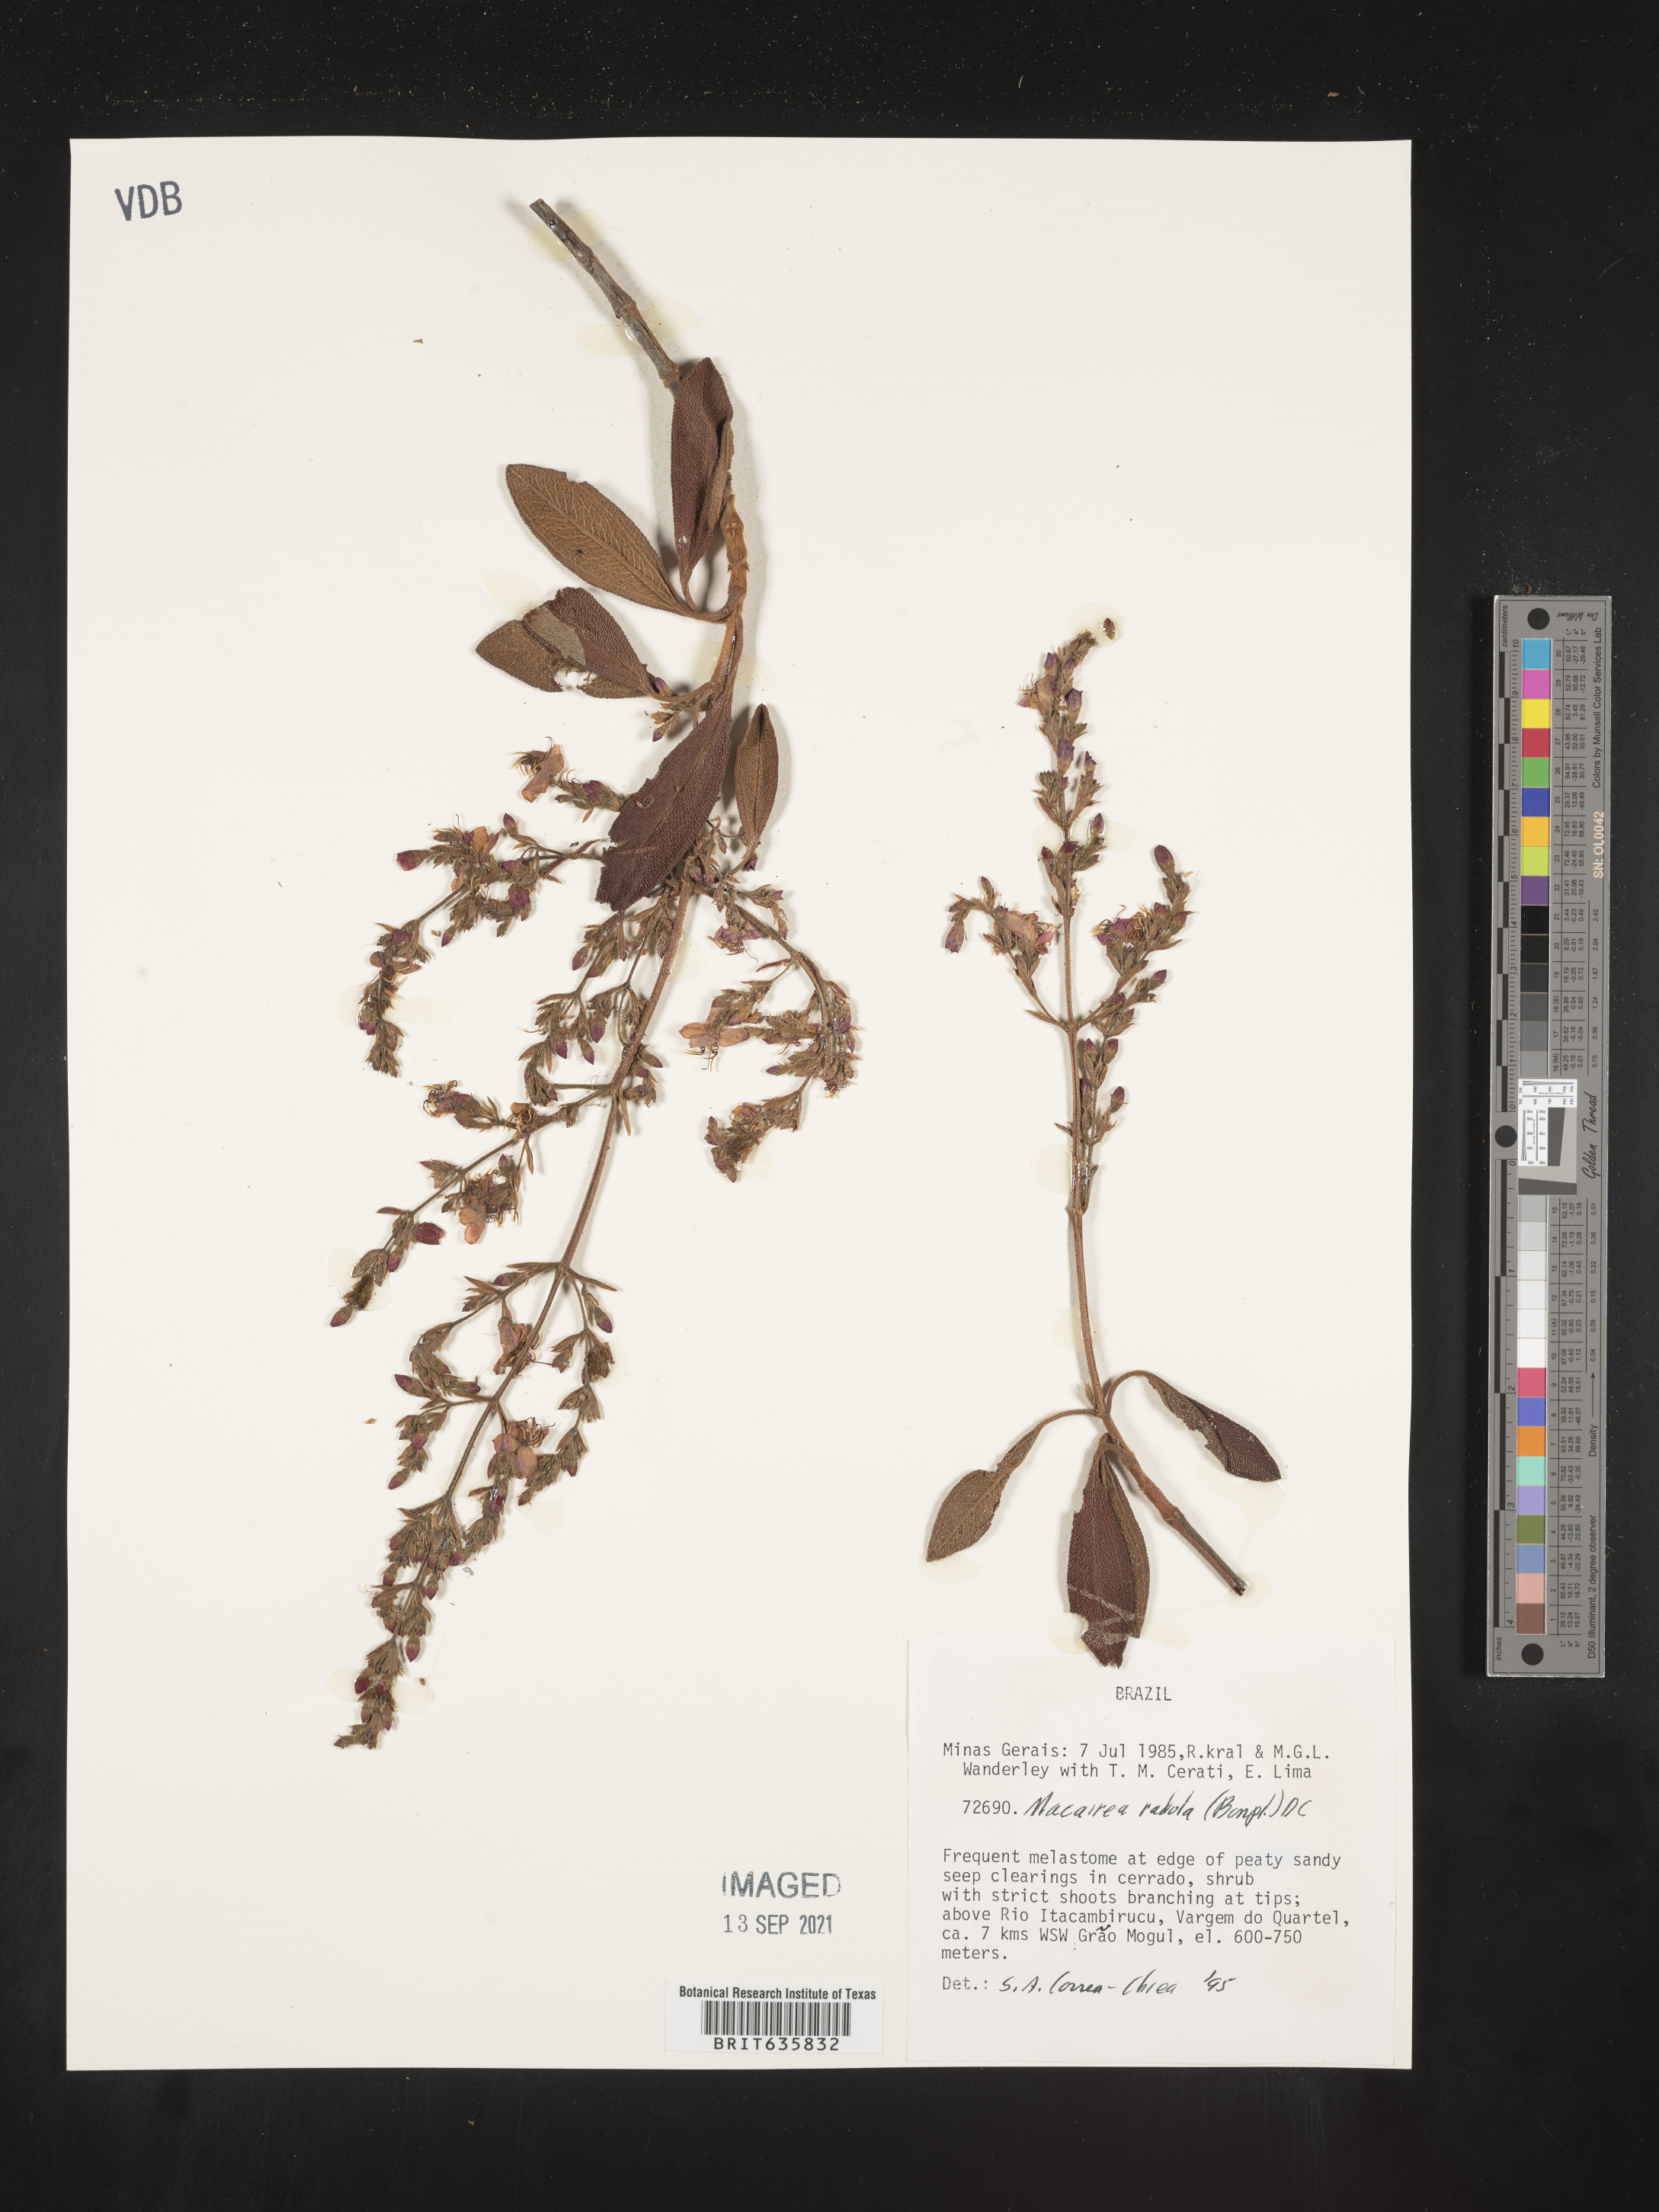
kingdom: Plantae
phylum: Tracheophyta
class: Magnoliopsida
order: Myrtales
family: Melastomataceae
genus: Macairea
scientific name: Macairea
